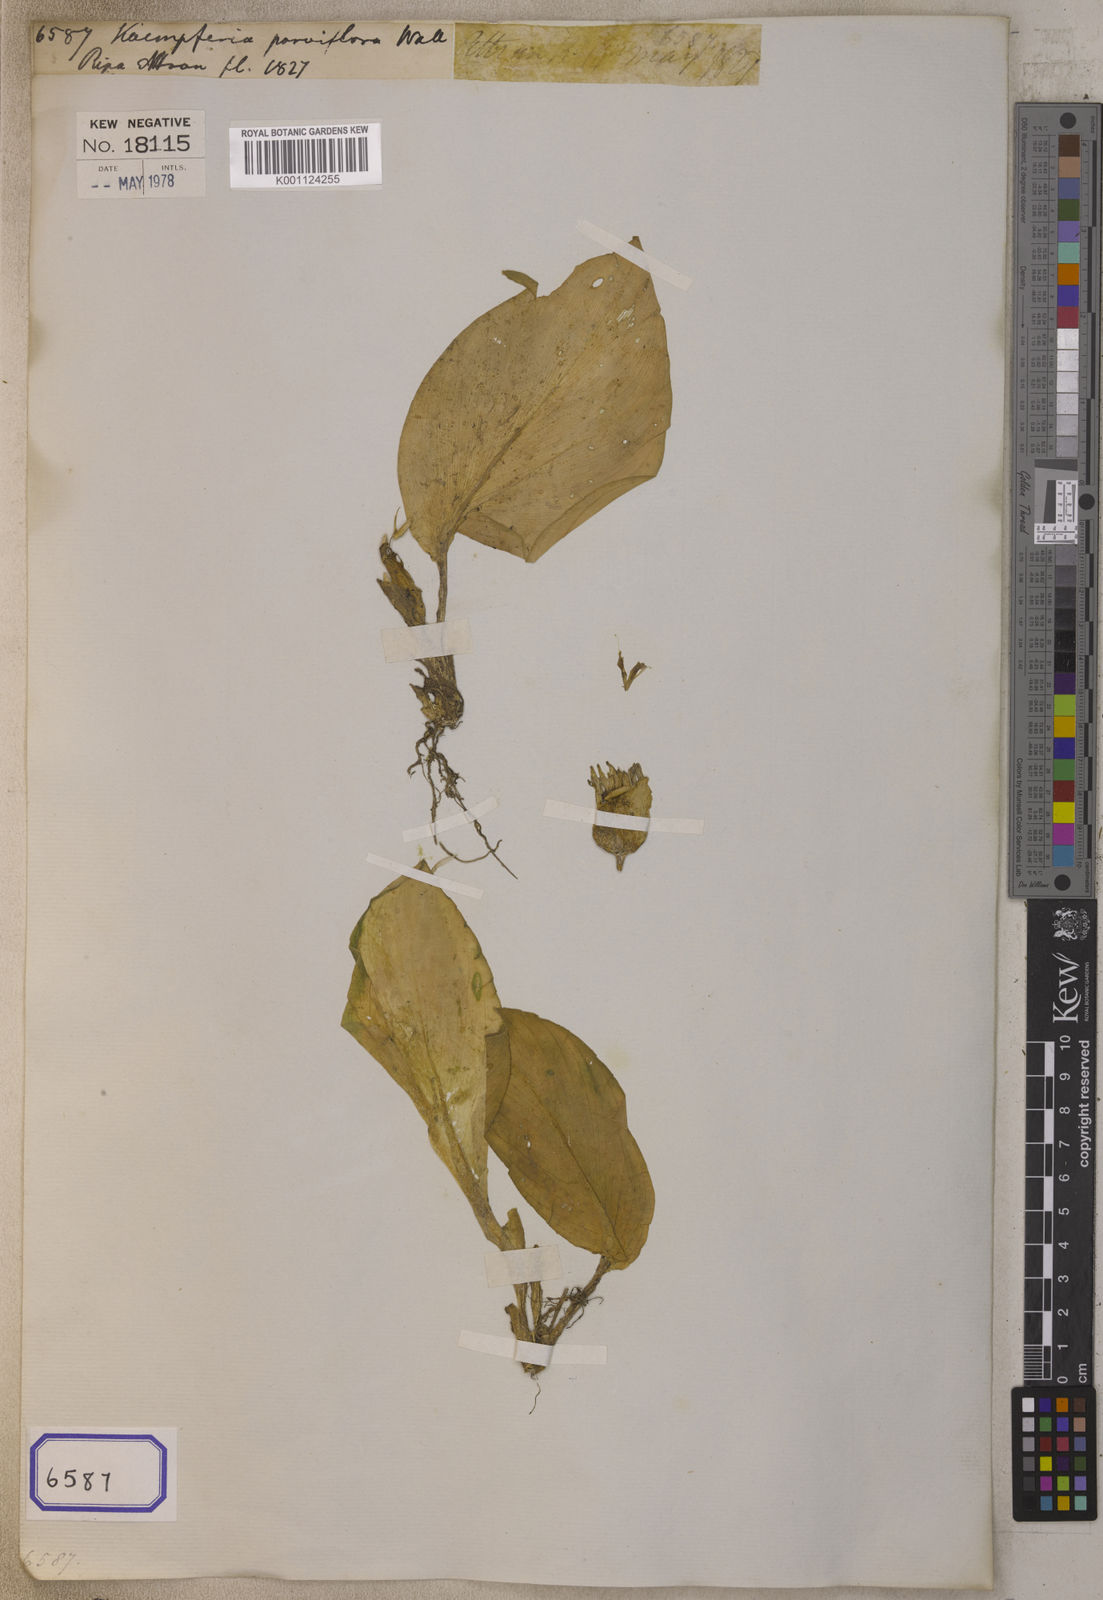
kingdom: Plantae
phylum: Tracheophyta
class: Liliopsida
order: Zingiberales
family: Zingiberaceae
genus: Kaempferia
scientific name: Kaempferia
